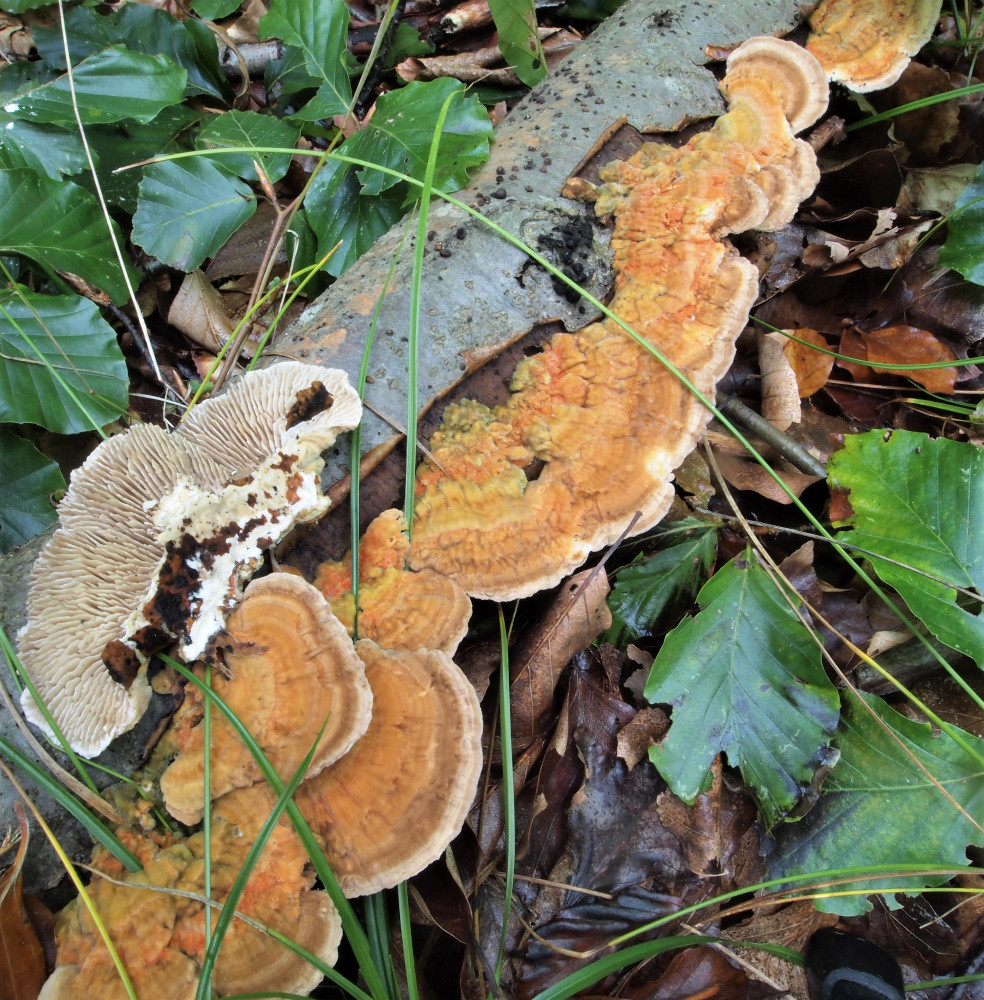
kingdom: Fungi
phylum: Basidiomycota
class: Agaricomycetes
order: Polyporales
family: Polyporaceae
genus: Lenzites
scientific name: Lenzites betulinus
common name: birke-læderporesvamp
